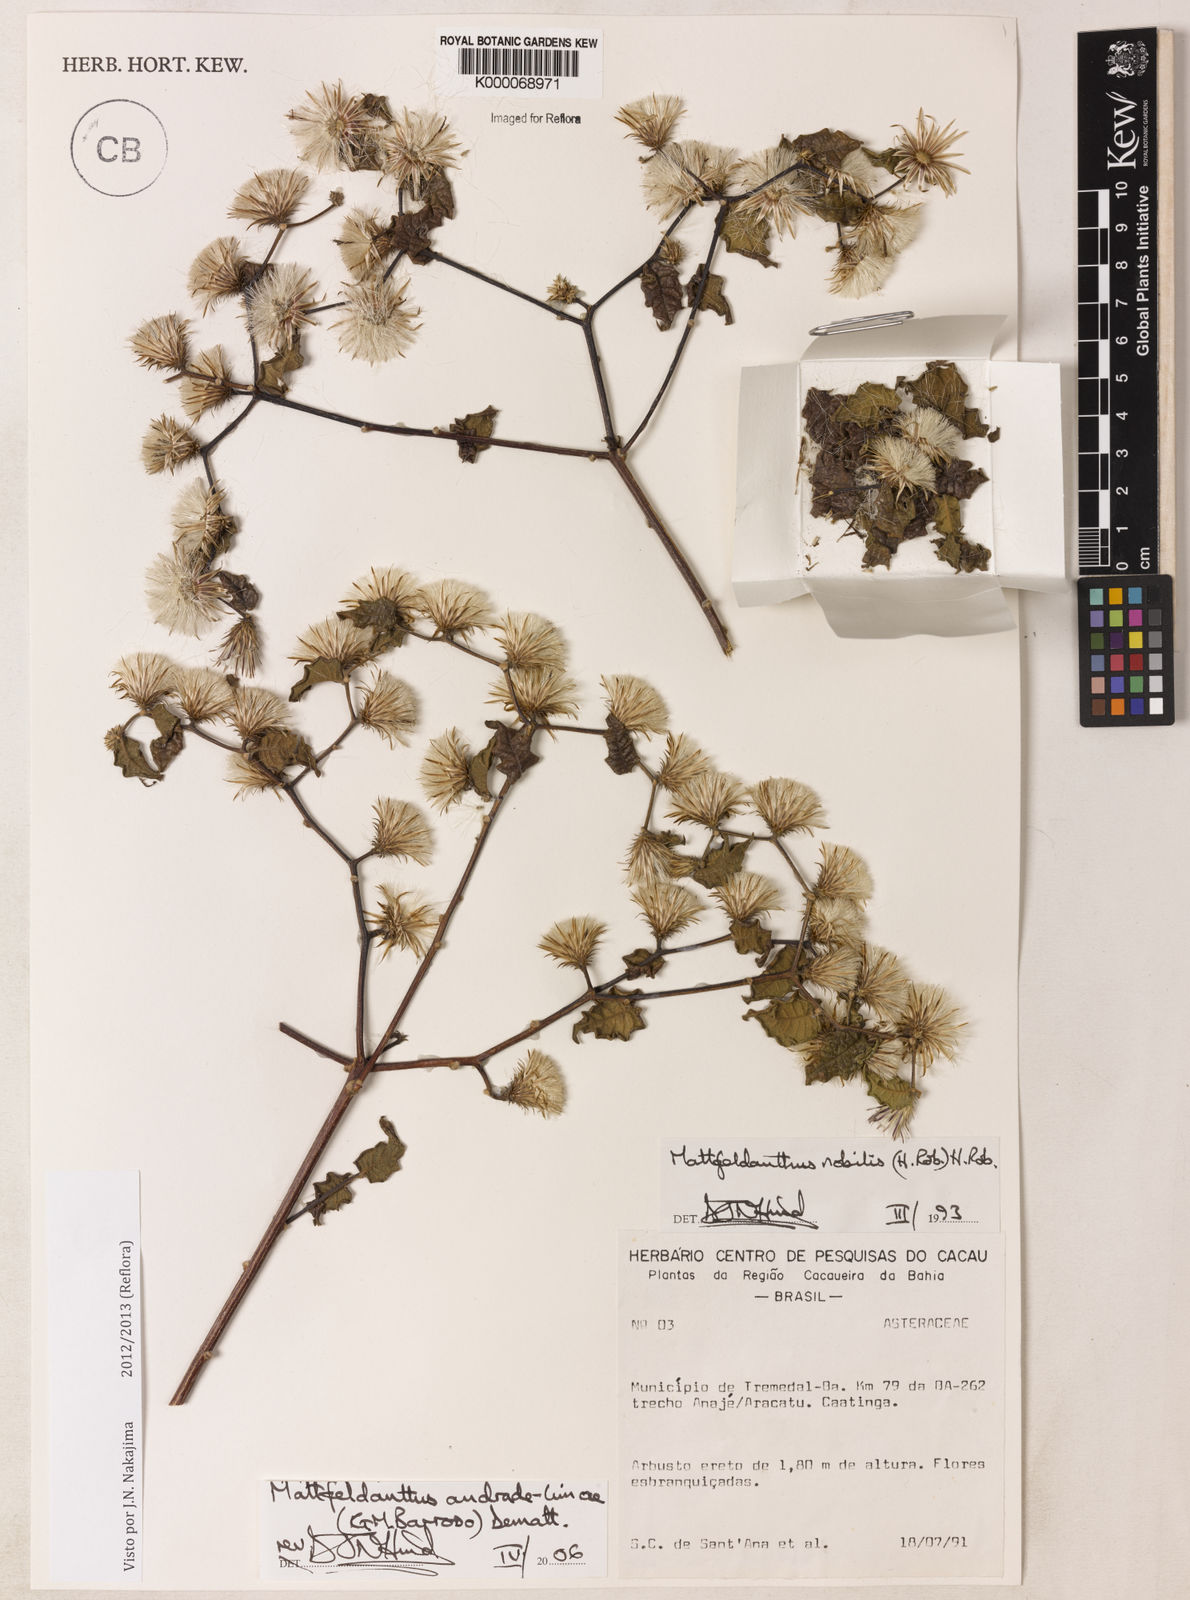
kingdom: Plantae
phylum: Tracheophyta
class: Magnoliopsida
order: Asterales
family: Asteraceae
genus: Mattfeldanthus
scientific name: Mattfeldanthus andrade-limae
